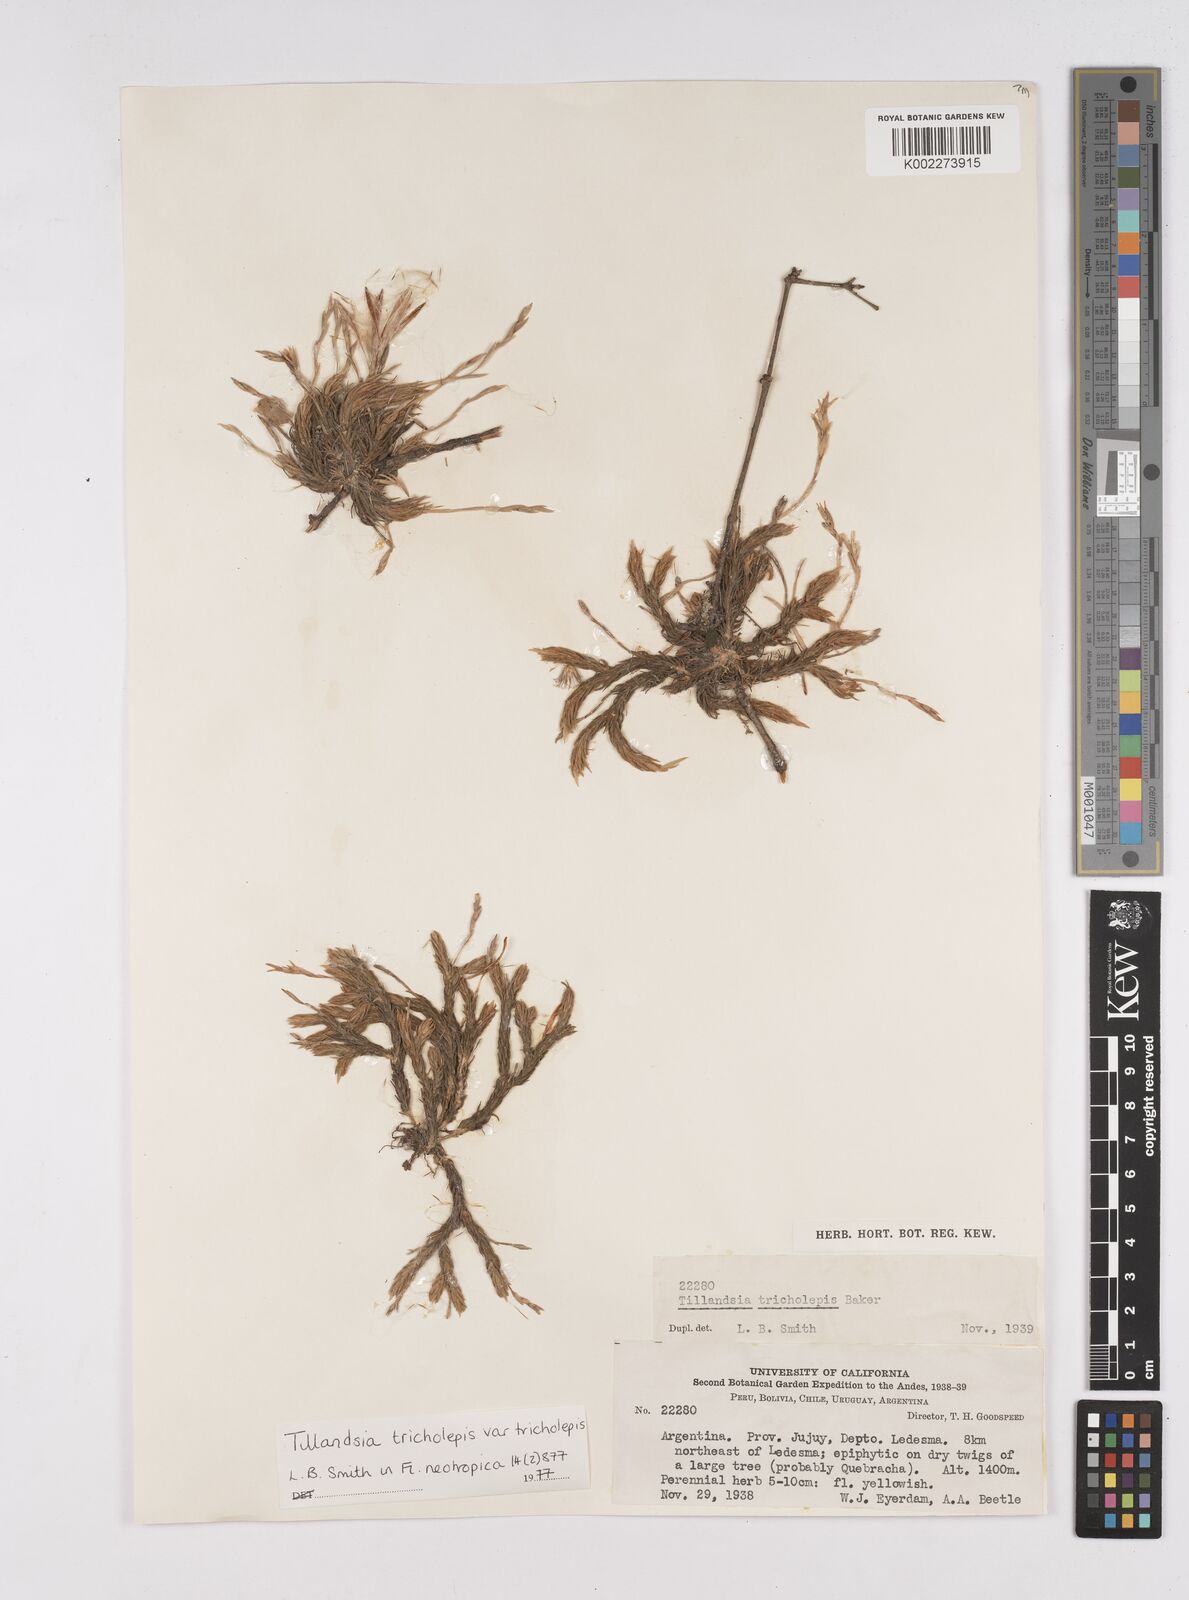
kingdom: Plantae
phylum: Tracheophyta
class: Liliopsida
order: Poales
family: Bromeliaceae
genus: Tillandsia
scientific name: Tillandsia tricholepis
